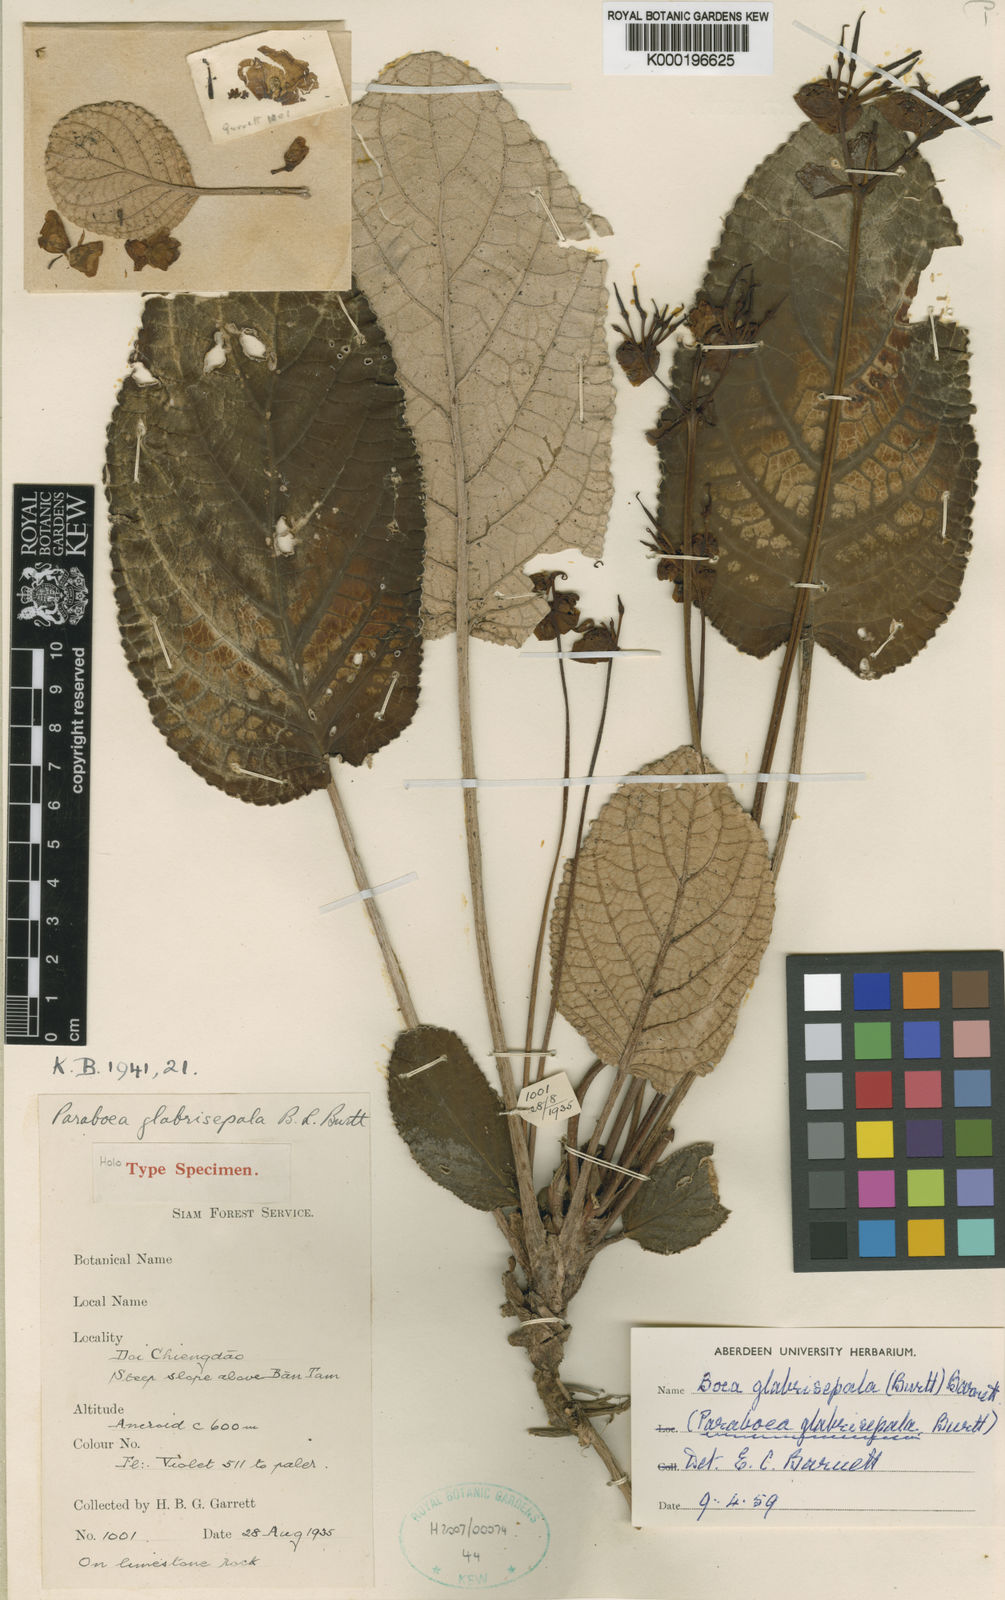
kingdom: Plantae
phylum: Tracheophyta
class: Magnoliopsida
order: Lamiales
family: Gesneriaceae
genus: Paraboea
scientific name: Paraboea glabrisepala
